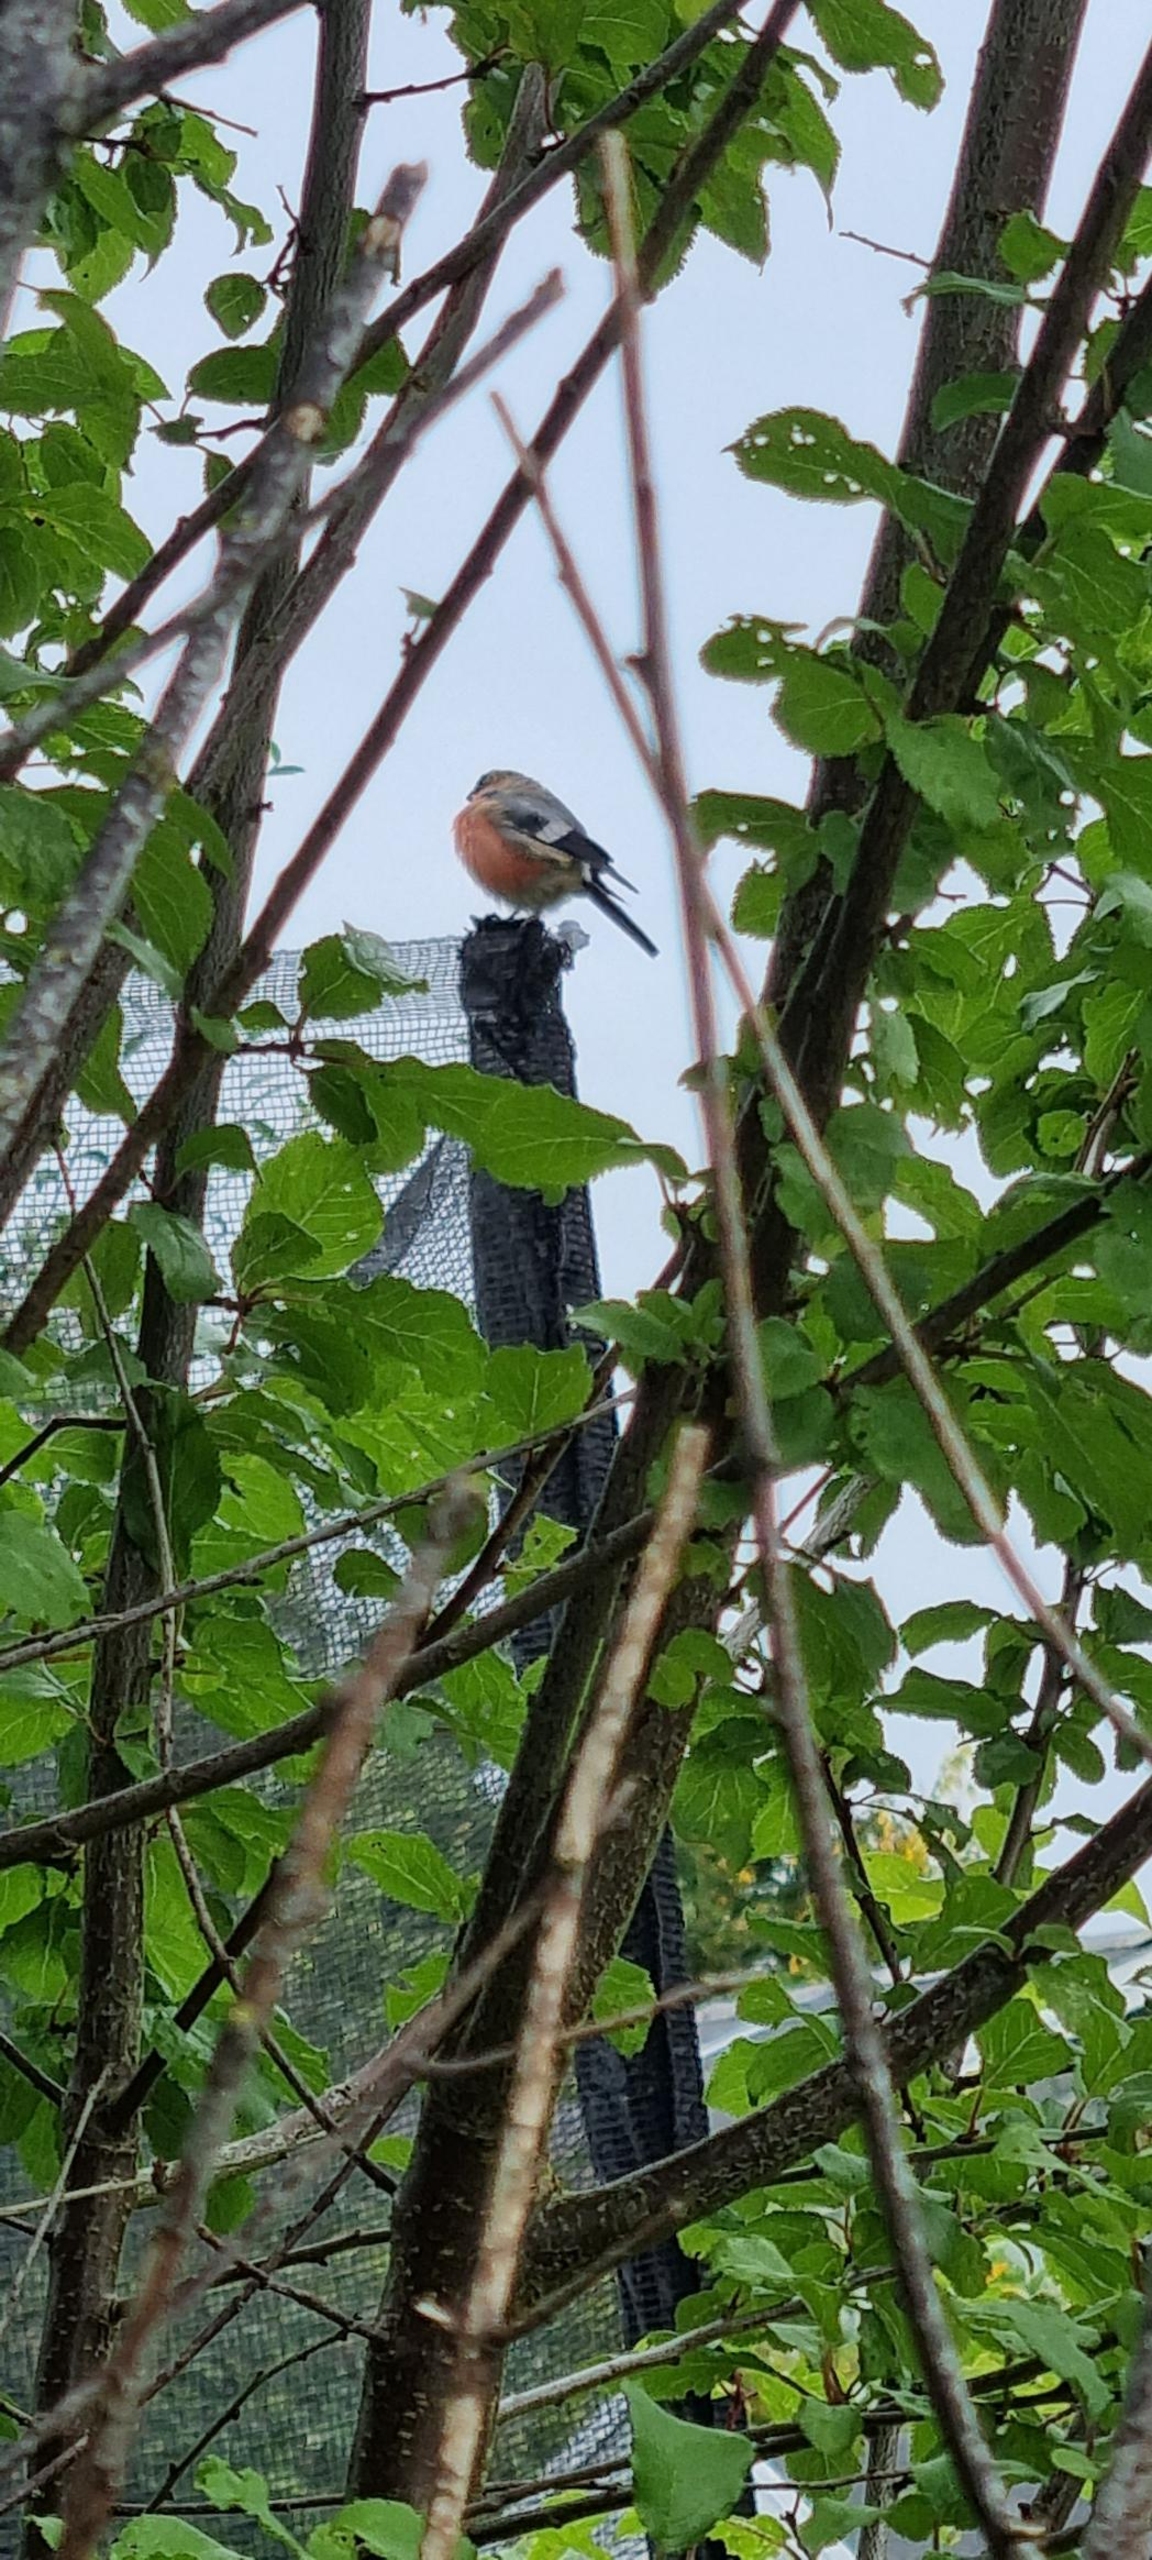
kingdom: Animalia
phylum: Chordata
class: Aves
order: Passeriformes
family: Fringillidae
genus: Pyrrhula
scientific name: Pyrrhula pyrrhula
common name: Dompap
